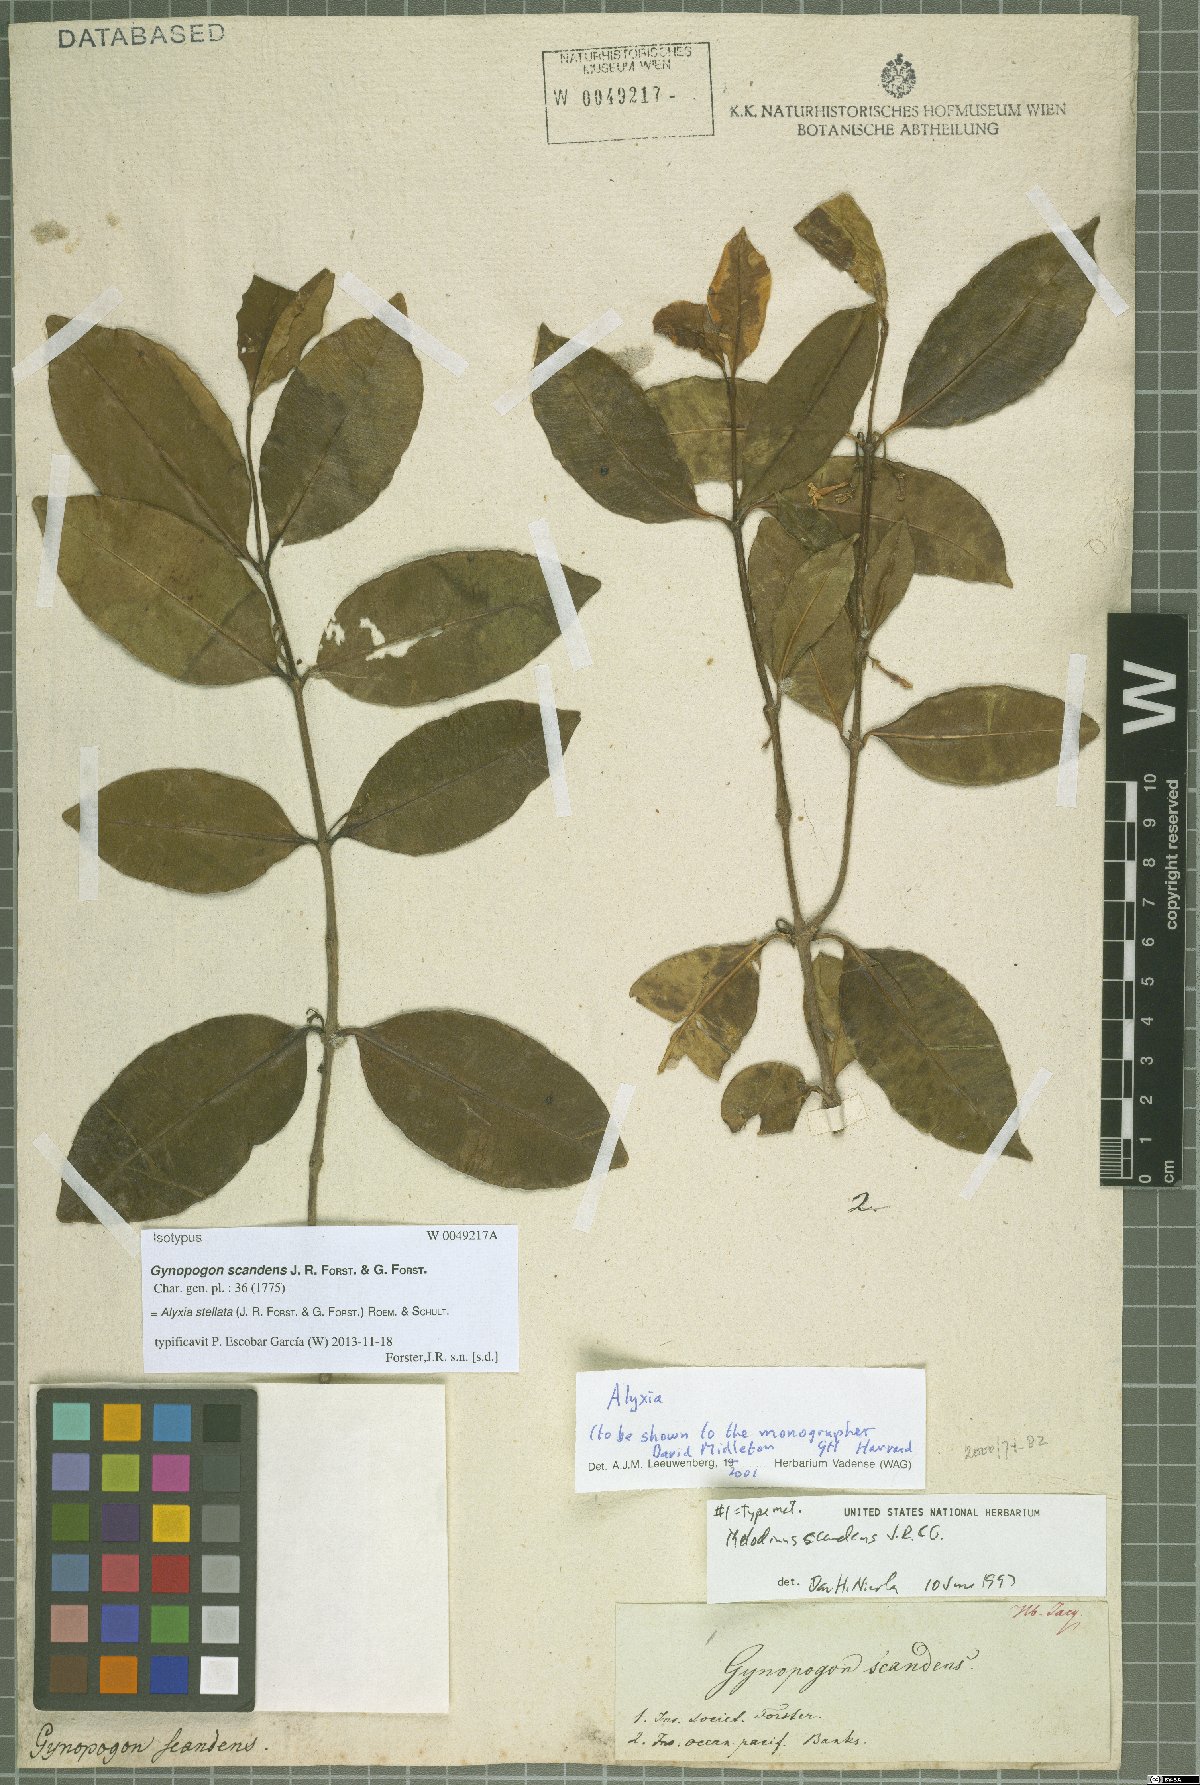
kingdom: Plantae
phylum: Tracheophyta
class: Magnoliopsida
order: Gentianales
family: Apocynaceae
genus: Alyxia
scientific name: Alyxia stellata
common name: Maile
